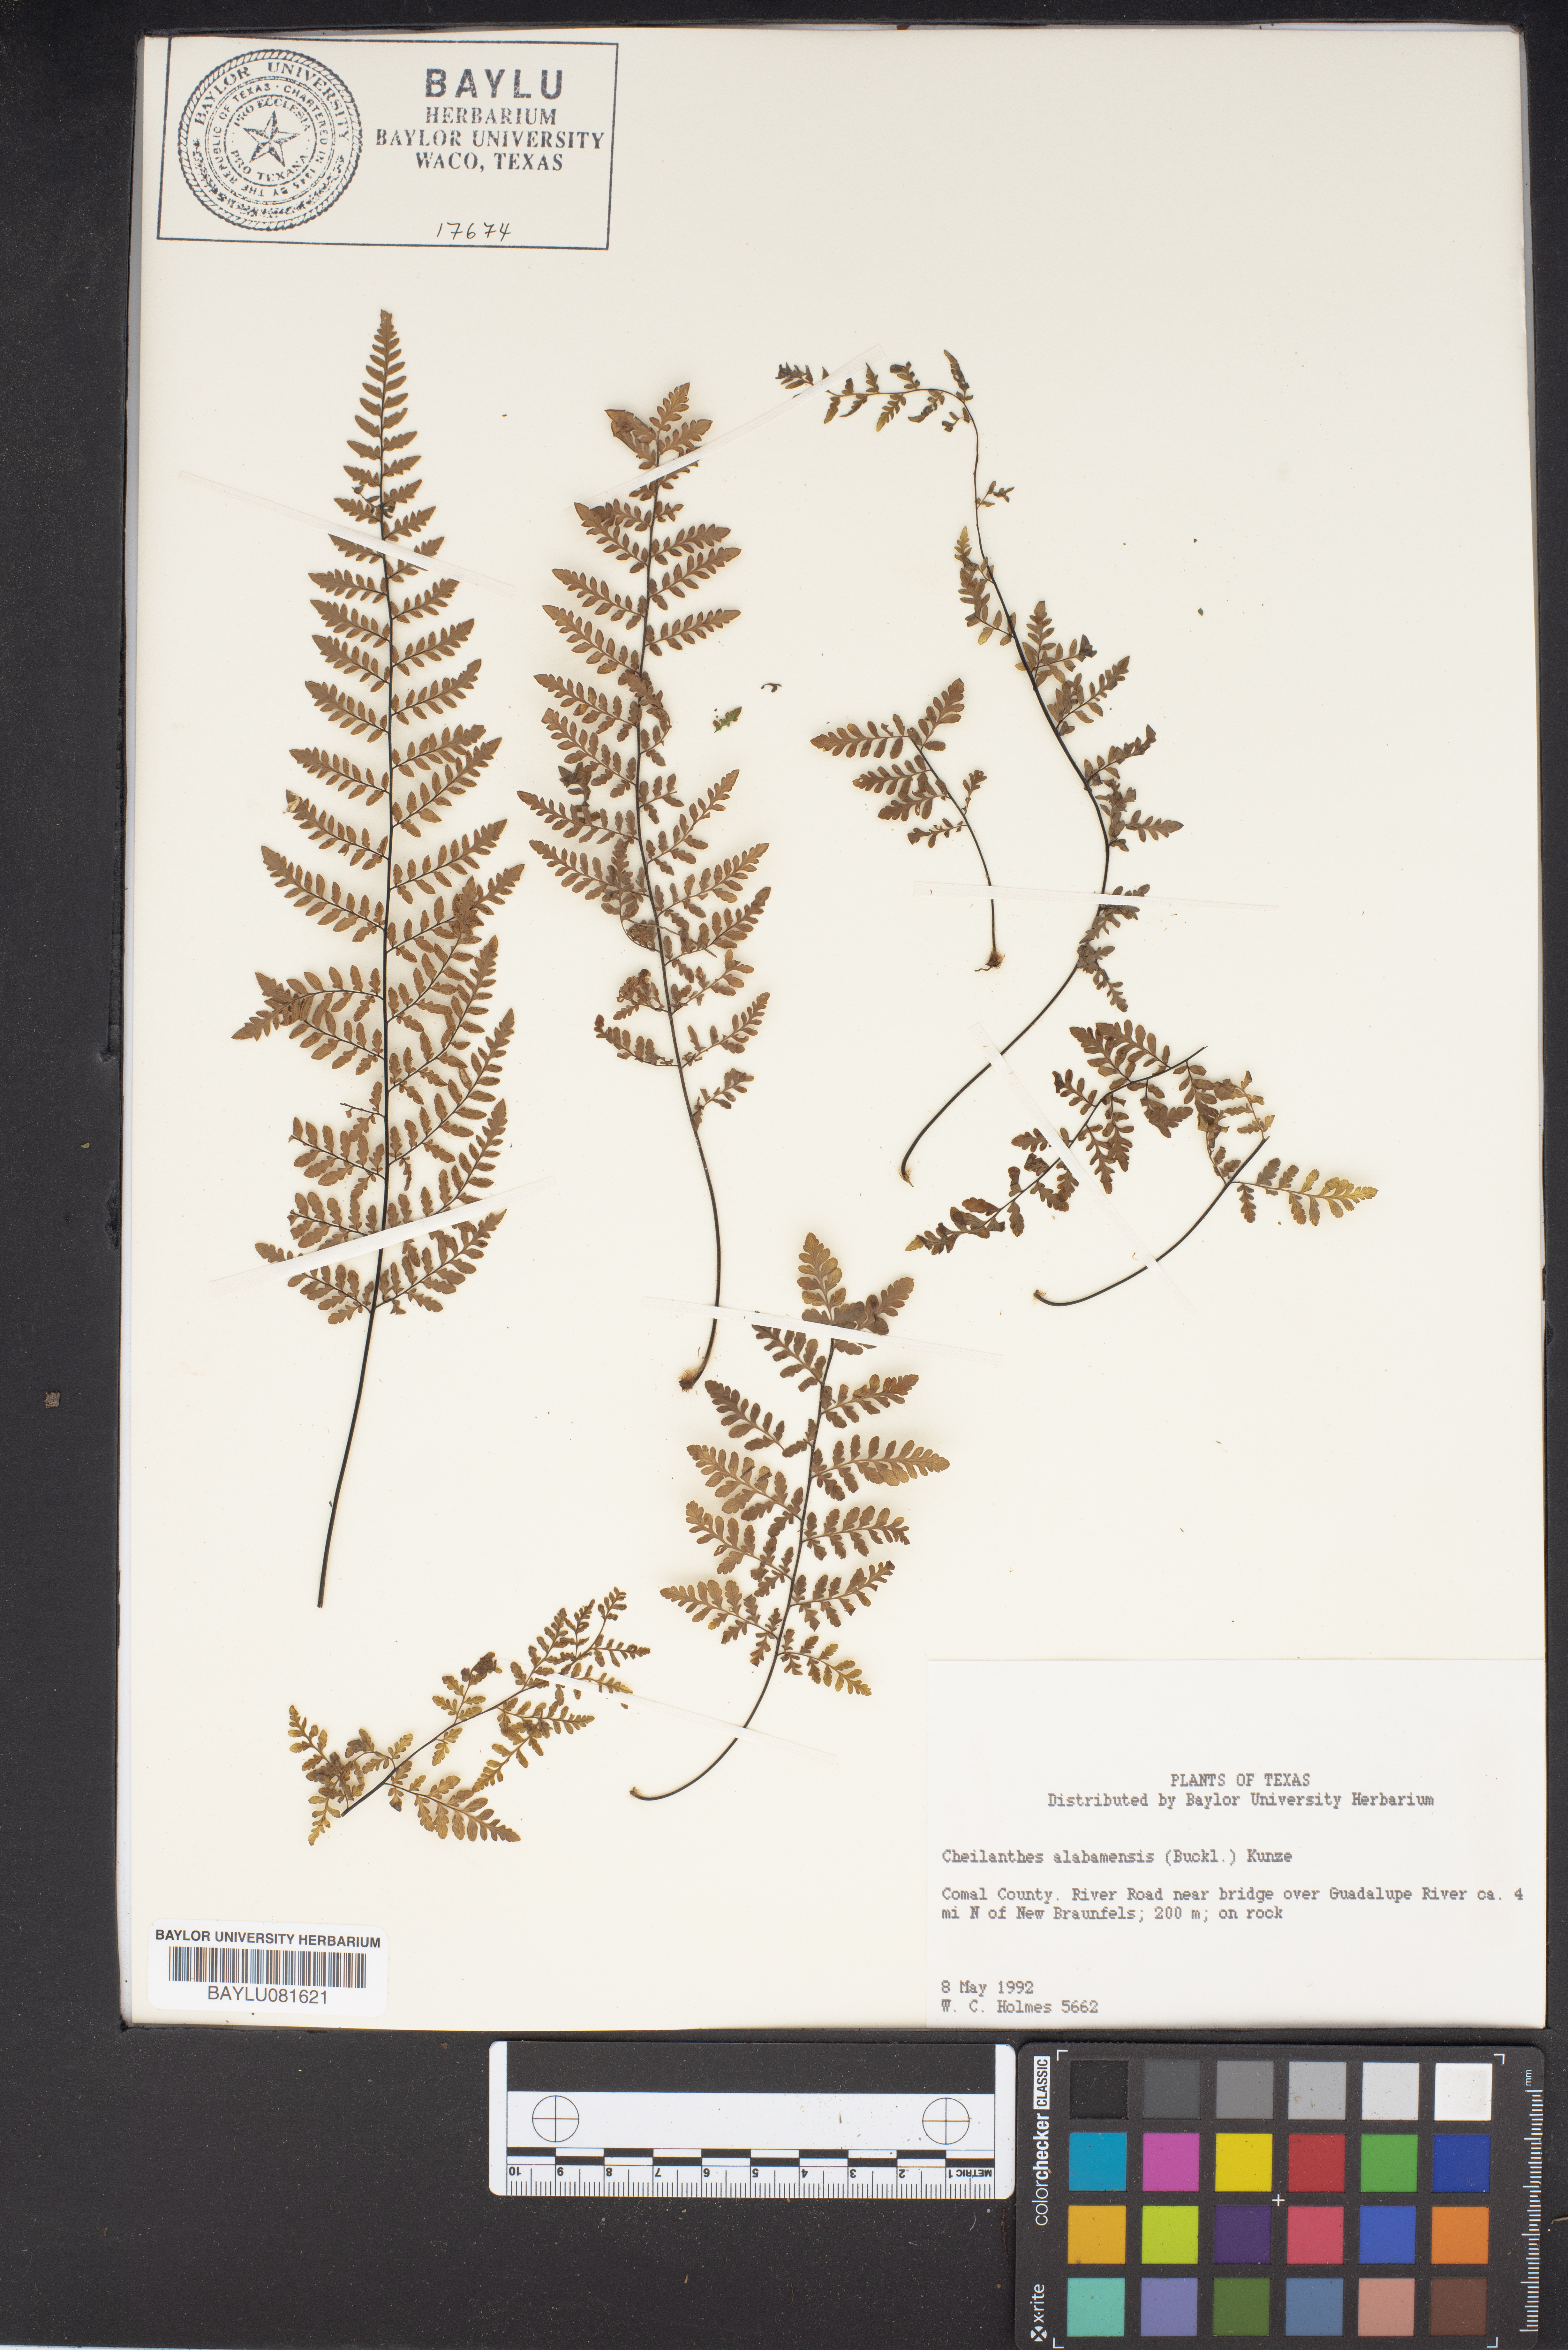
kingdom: Plantae
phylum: Tracheophyta
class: Polypodiopsida
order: Polypodiales
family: Pteridaceae
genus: Myriopteris
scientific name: Myriopteris alabamensis
